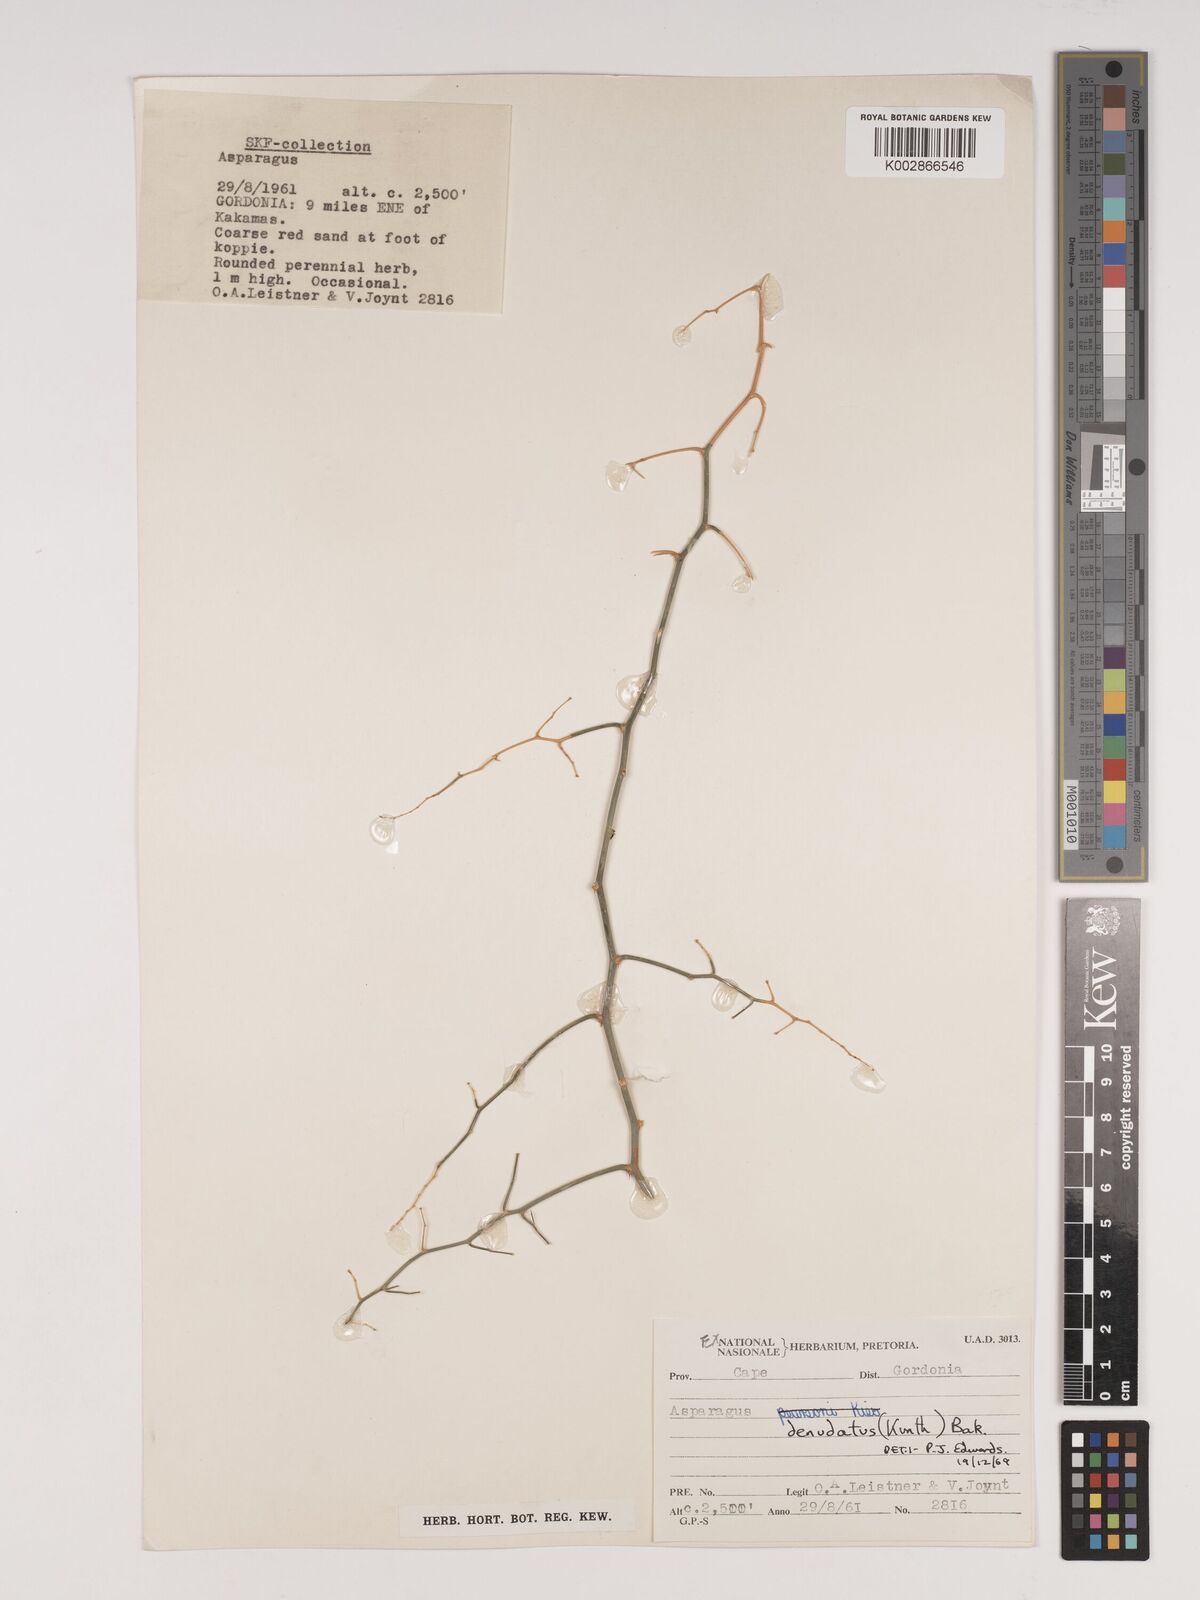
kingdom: Plantae
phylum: Tracheophyta
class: Liliopsida
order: Asparagales
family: Asparagaceae
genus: Asparagus
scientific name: Asparagus denudatus
